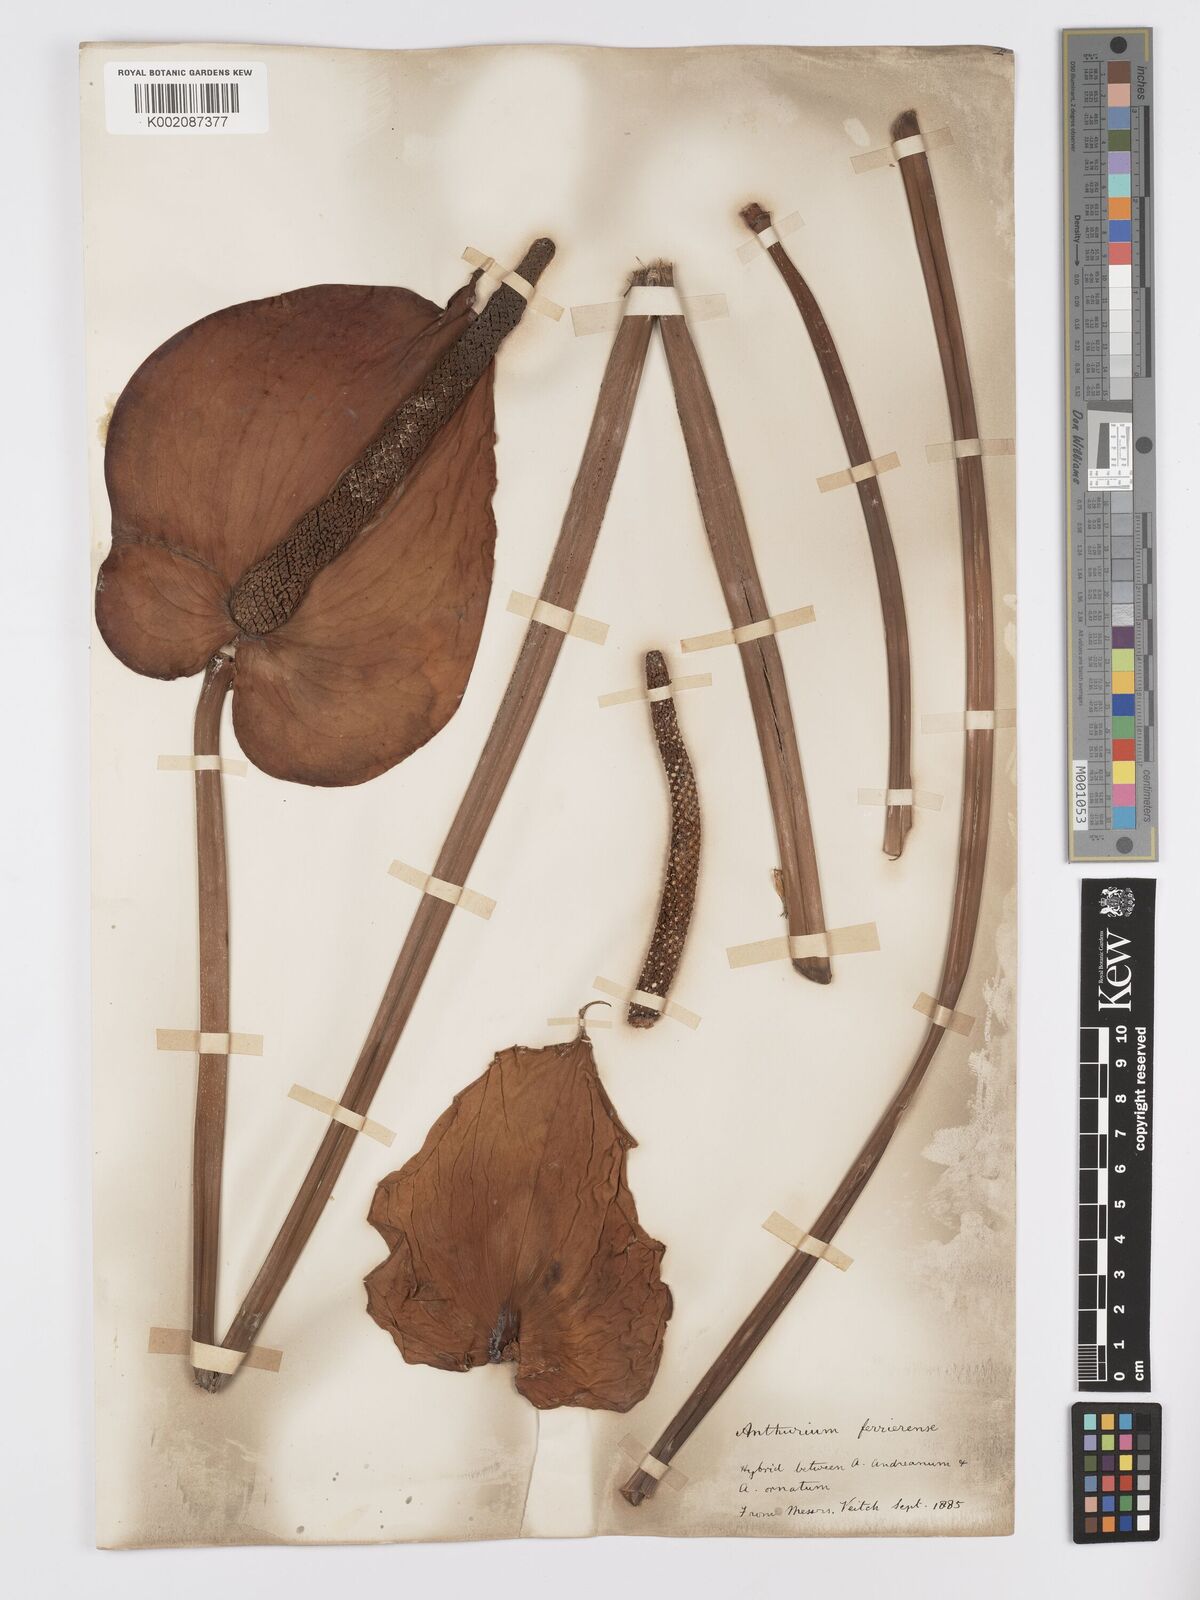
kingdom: Plantae
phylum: Tracheophyta
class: Liliopsida
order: Alismatales
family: Araceae
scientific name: Araceae
